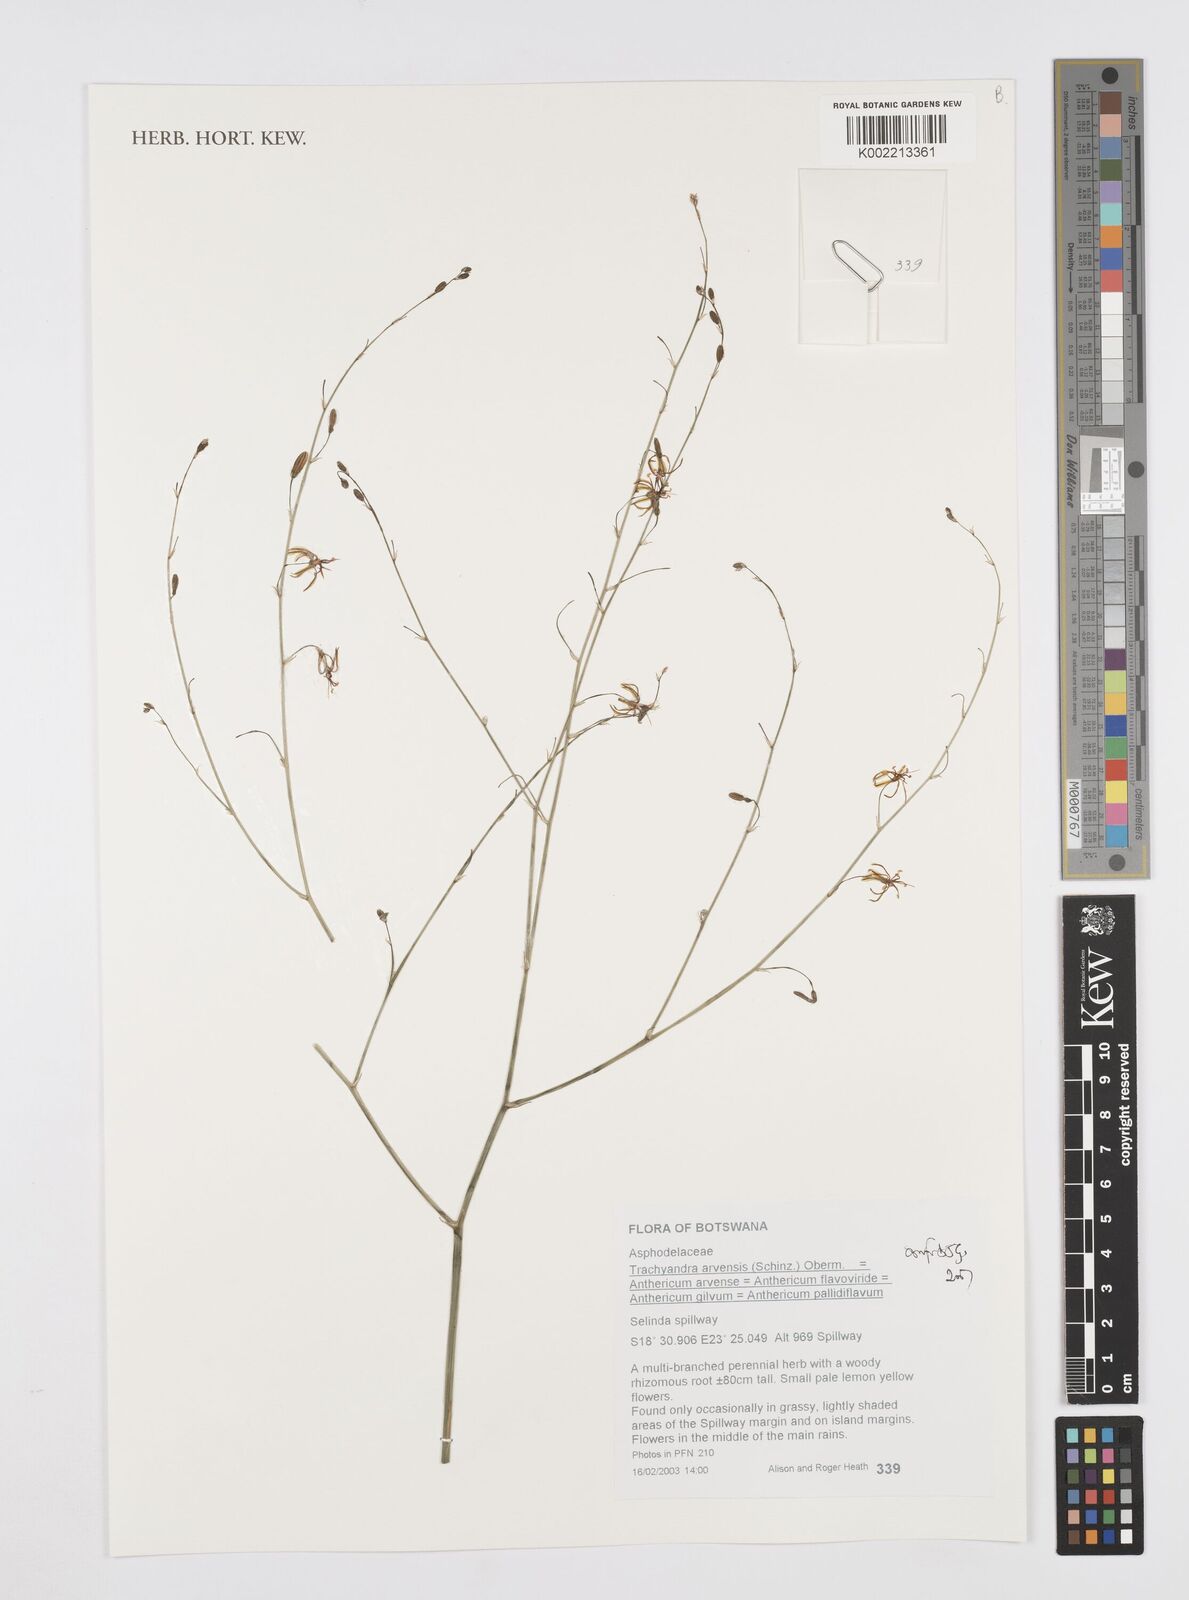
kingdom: Plantae
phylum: Tracheophyta
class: Liliopsida
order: Asparagales
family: Asphodelaceae
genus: Trachyandra
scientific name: Trachyandra arvensis
